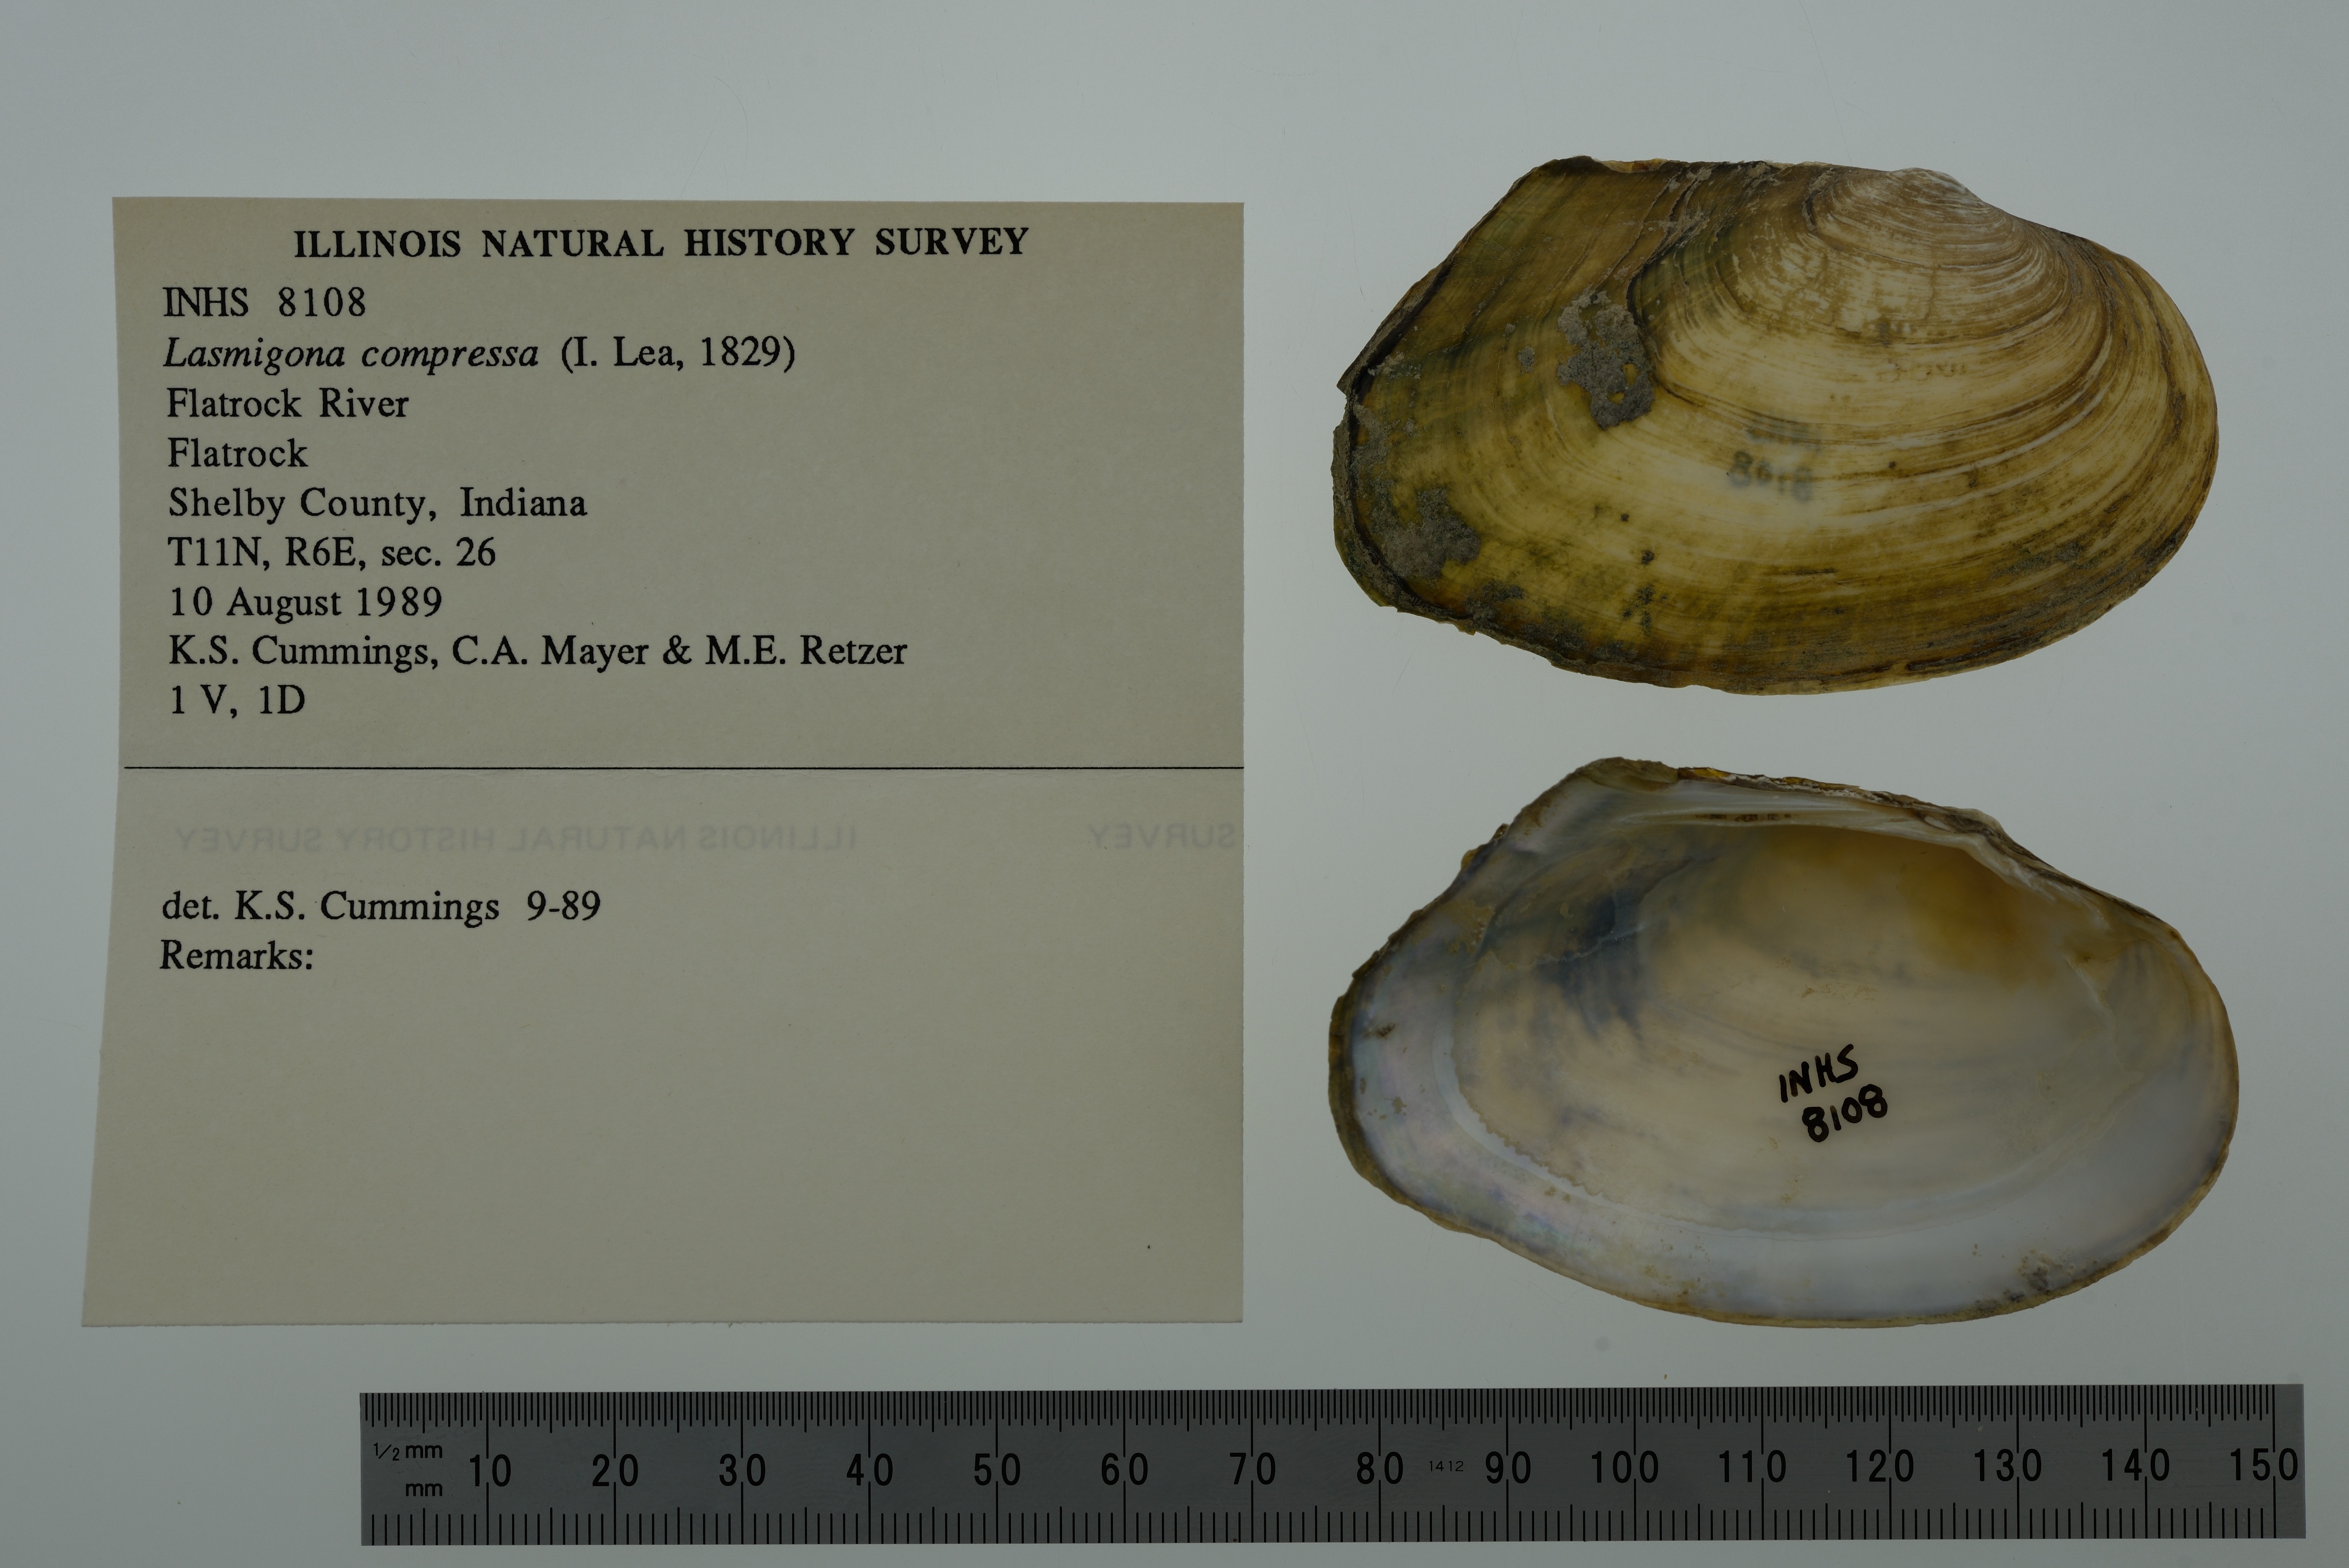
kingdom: Animalia
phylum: Mollusca
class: Bivalvia
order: Unionida
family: Unionidae
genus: Lasmigona
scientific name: Lasmigona compressa
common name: Creek heelsplitter
